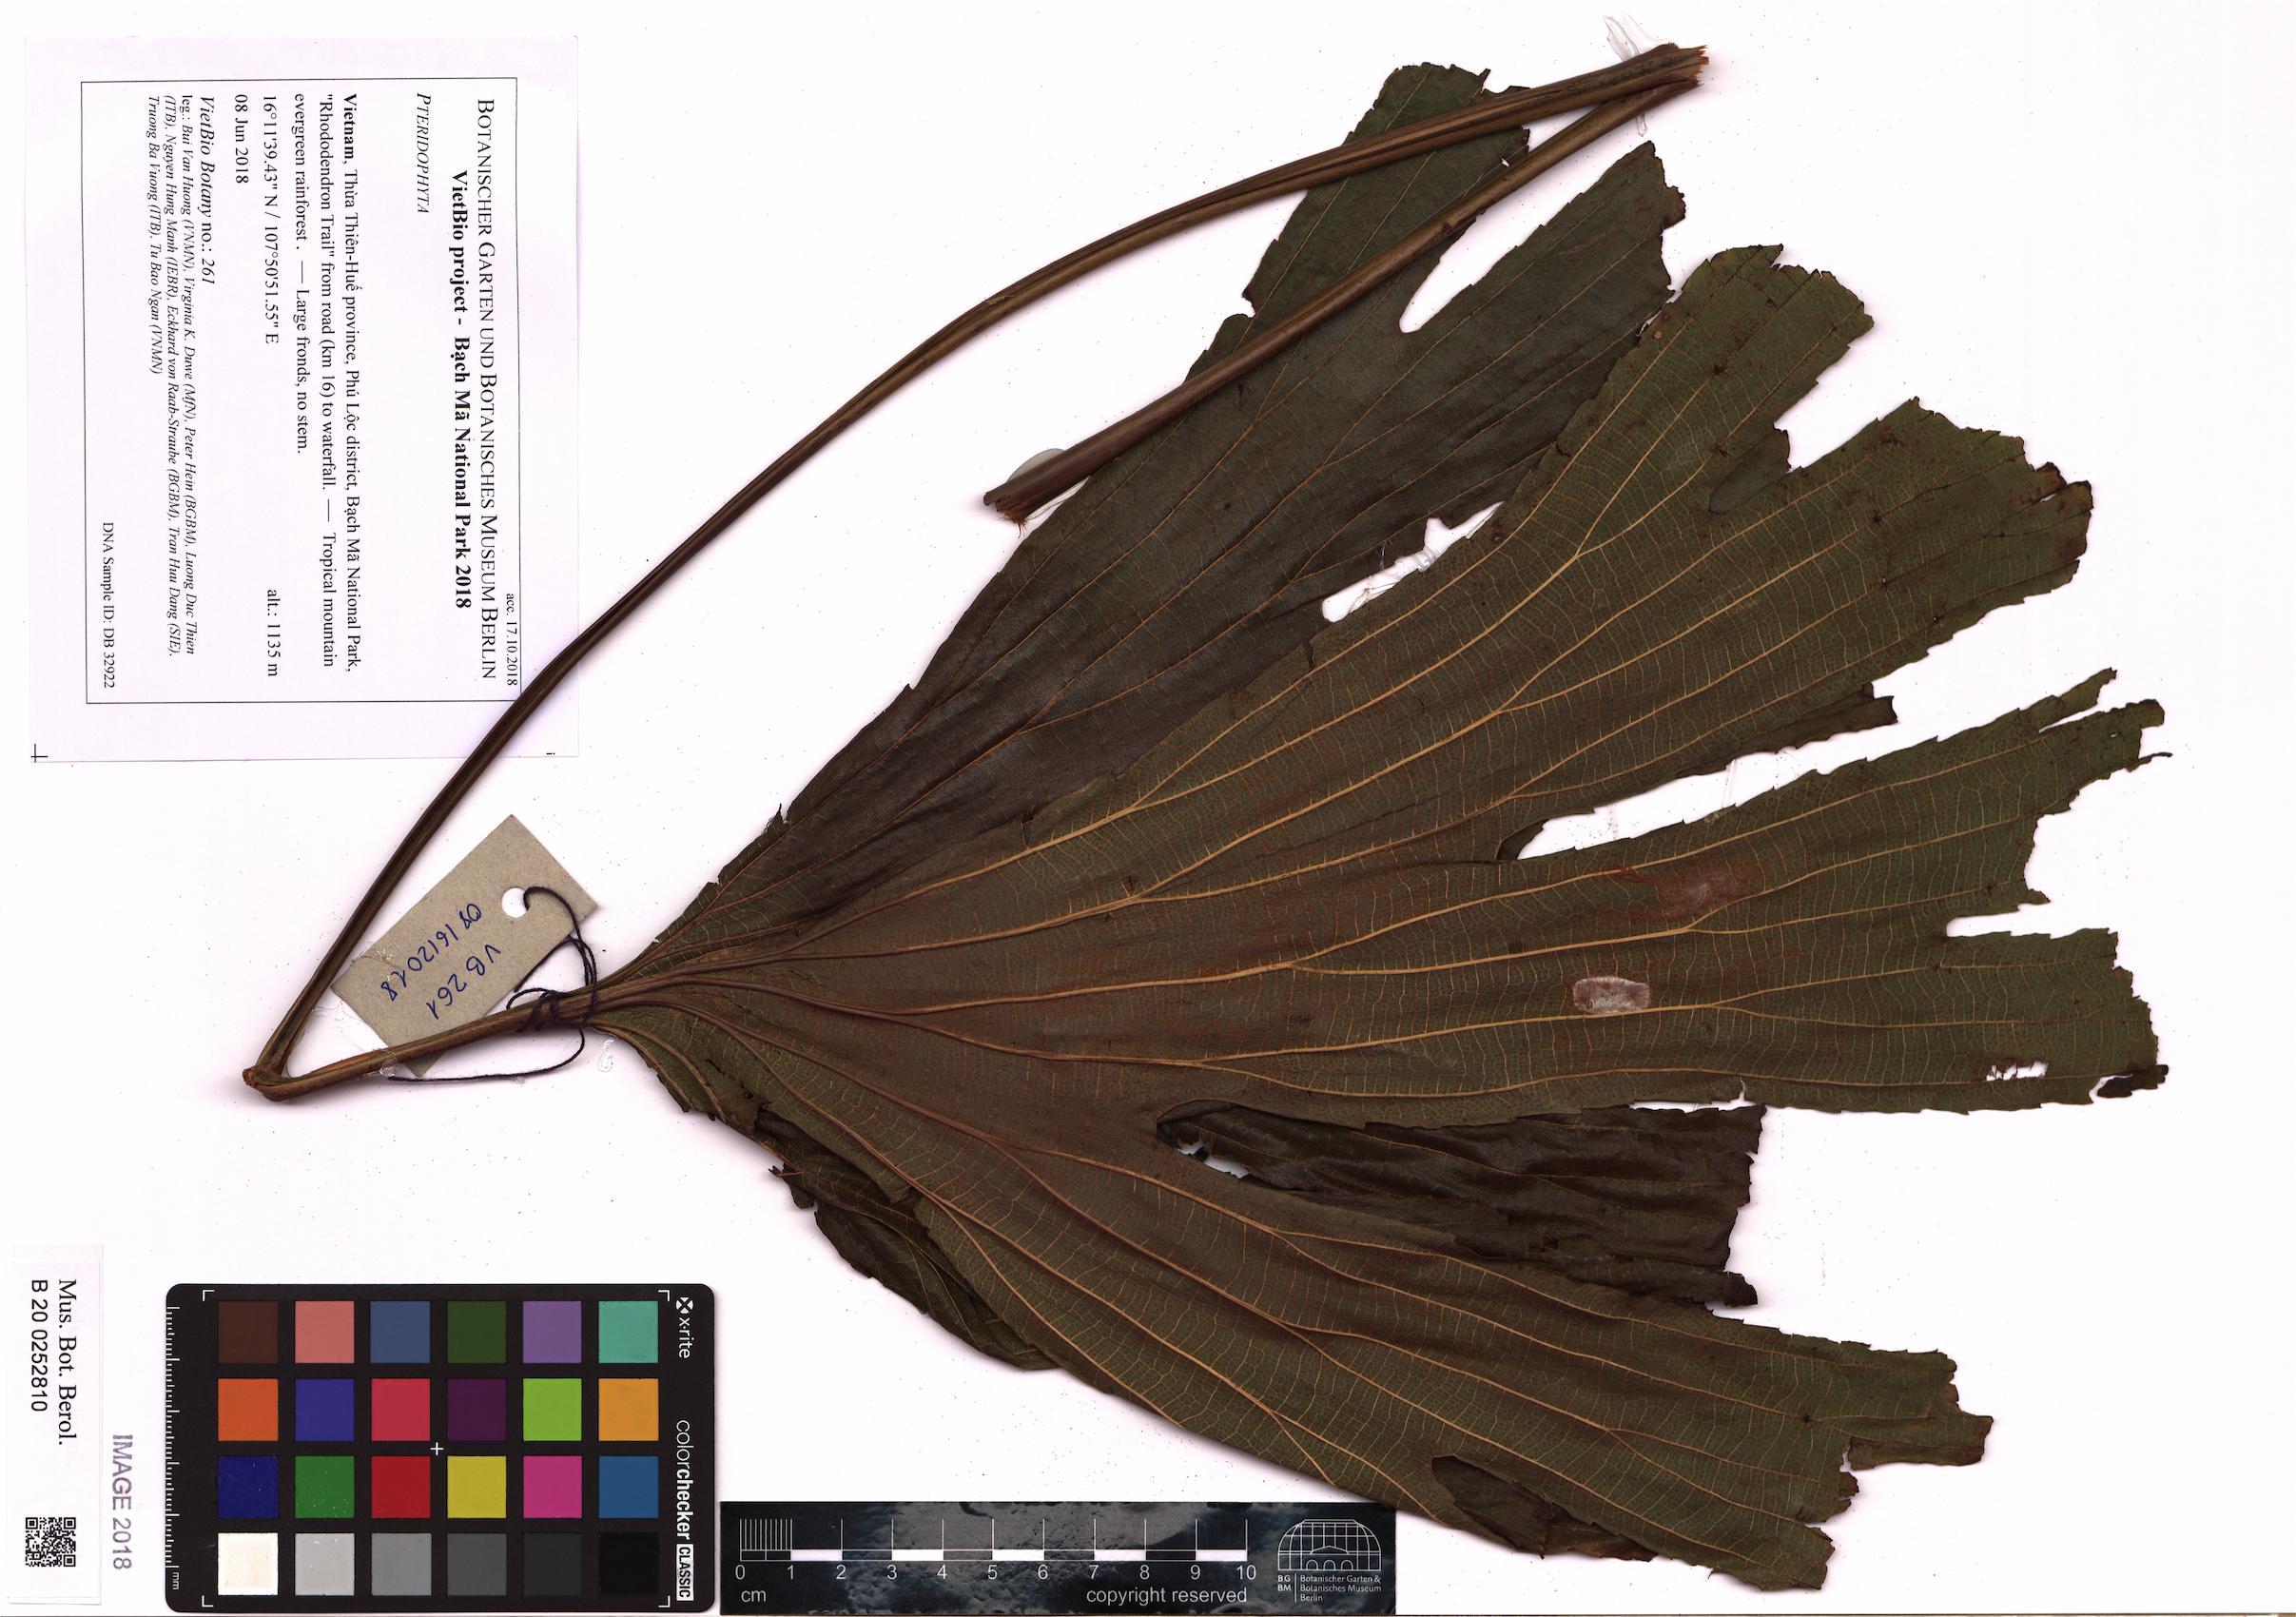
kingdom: Plantae
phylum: Tracheophyta
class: Polypodiopsida
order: Gleicheniales
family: Dipteridaceae
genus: Dipteris
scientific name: Dipteris
